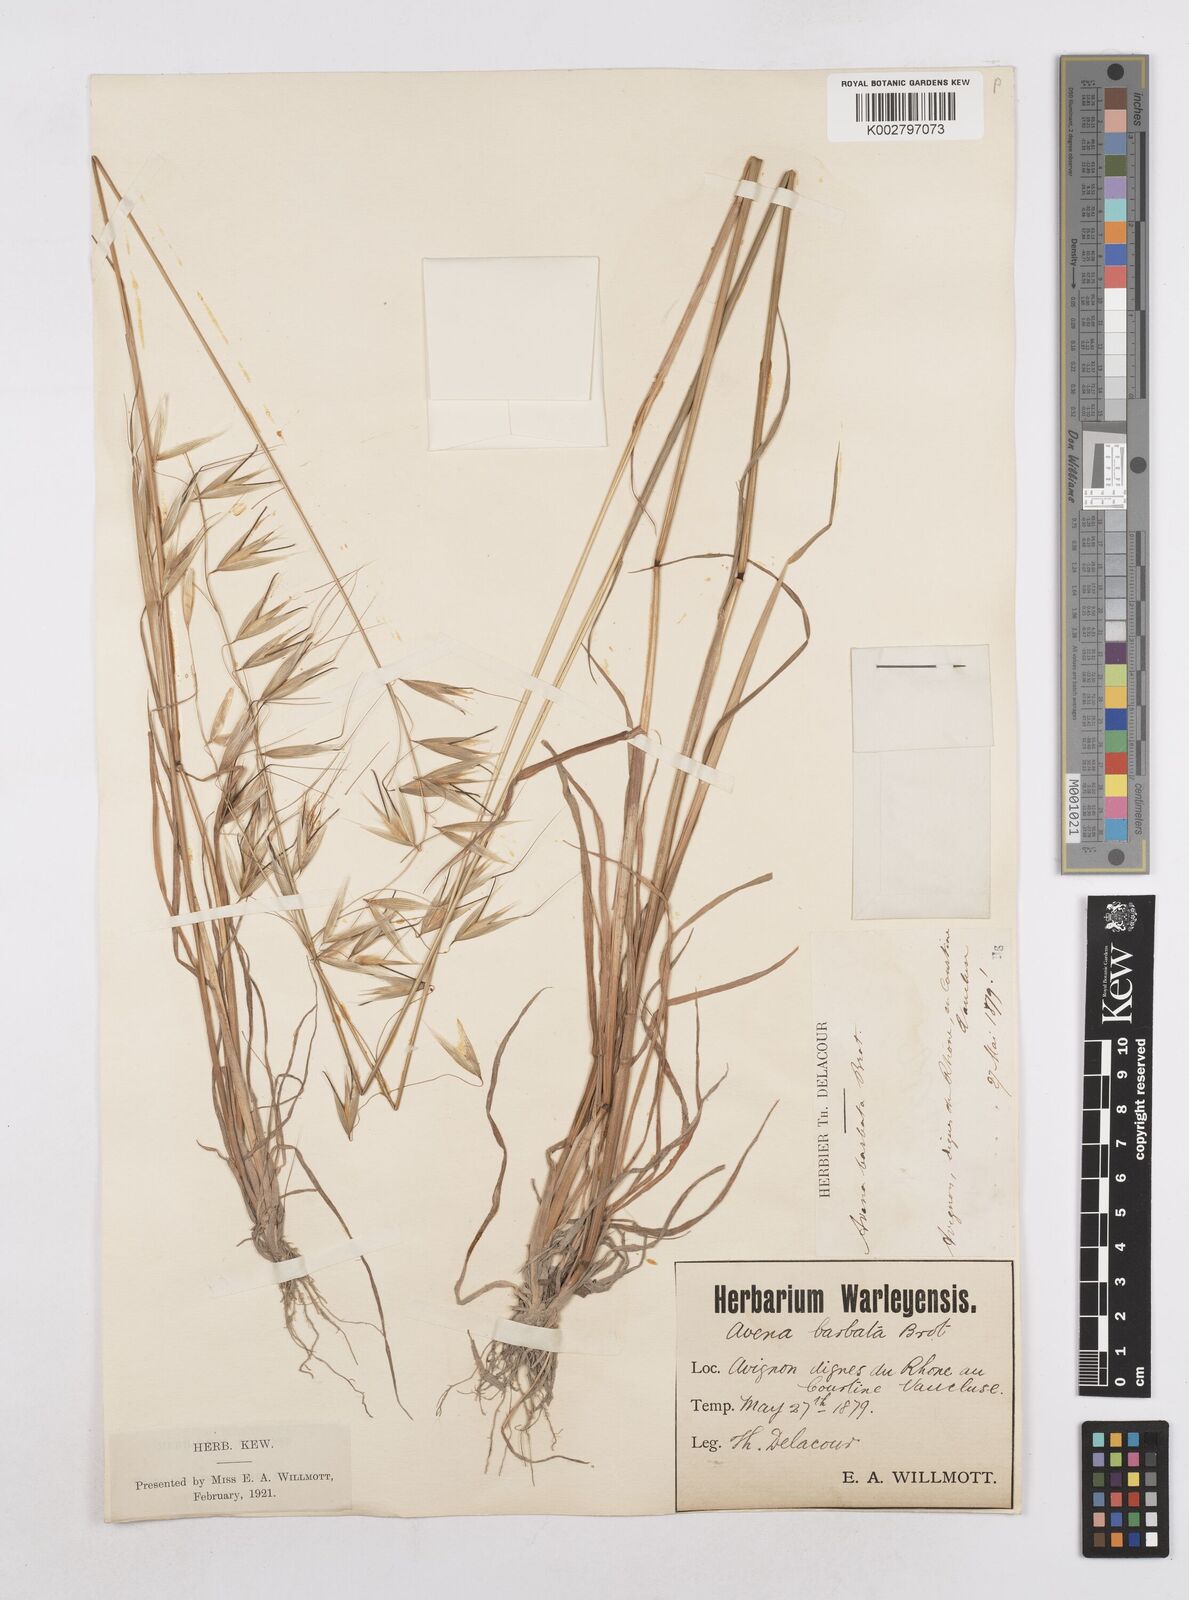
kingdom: Plantae
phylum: Tracheophyta
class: Liliopsida
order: Poales
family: Poaceae
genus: Avena
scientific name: Avena
